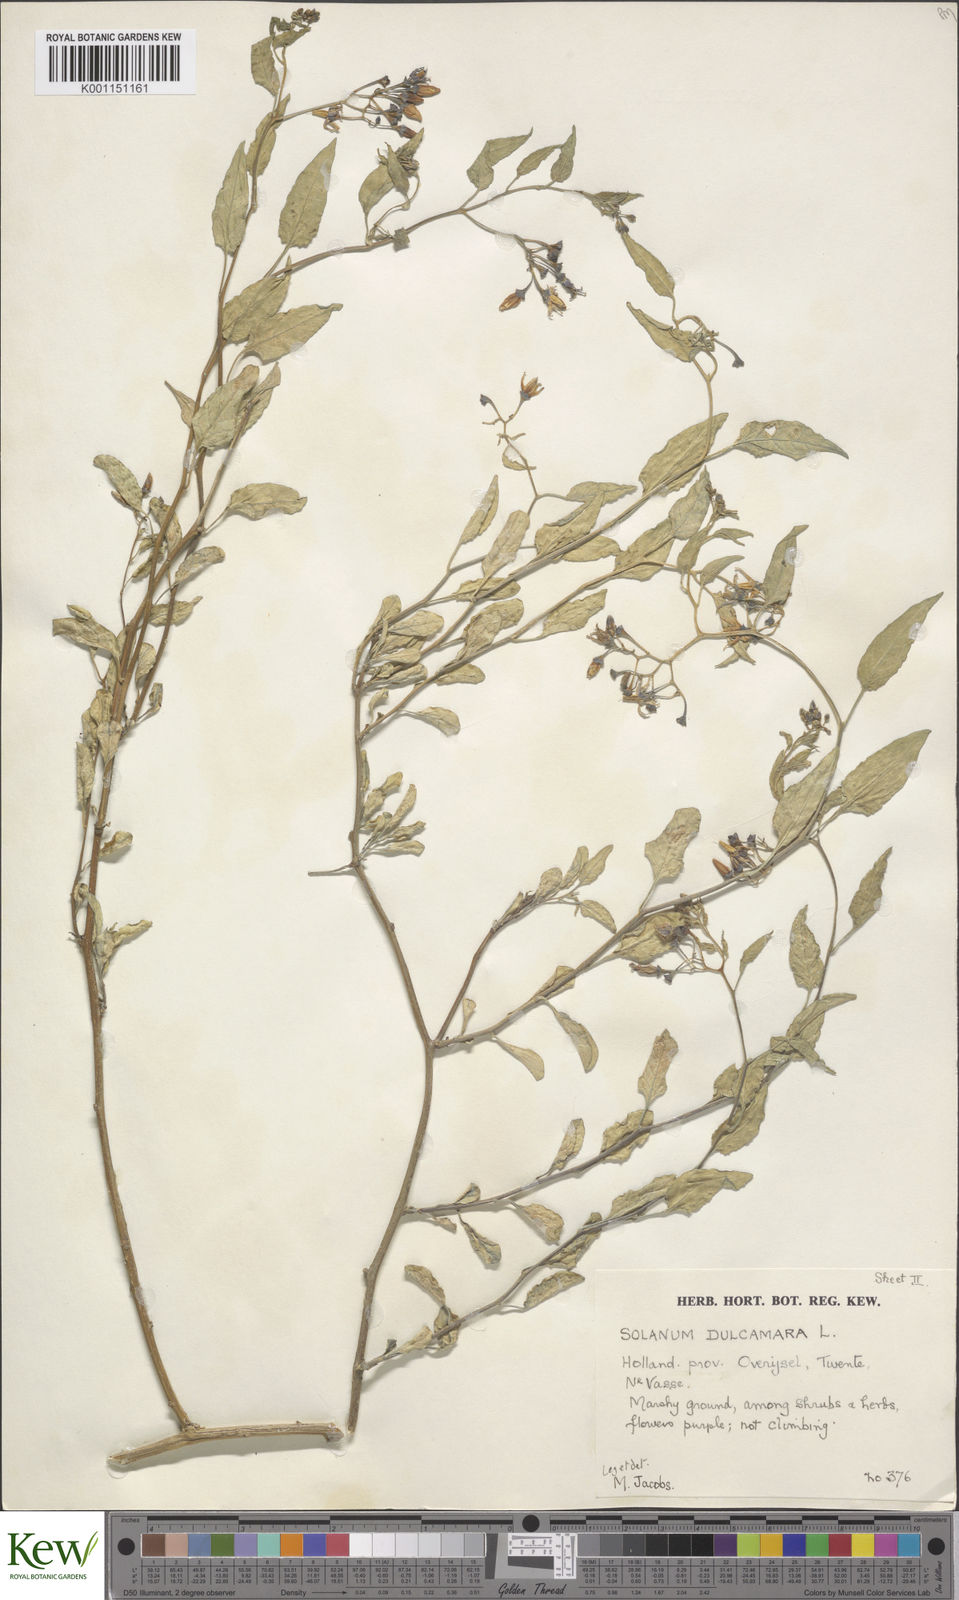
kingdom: Plantae
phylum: Tracheophyta
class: Magnoliopsida
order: Solanales
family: Solanaceae
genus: Solanum
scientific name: Solanum dulcamara
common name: Climbing nightshade
